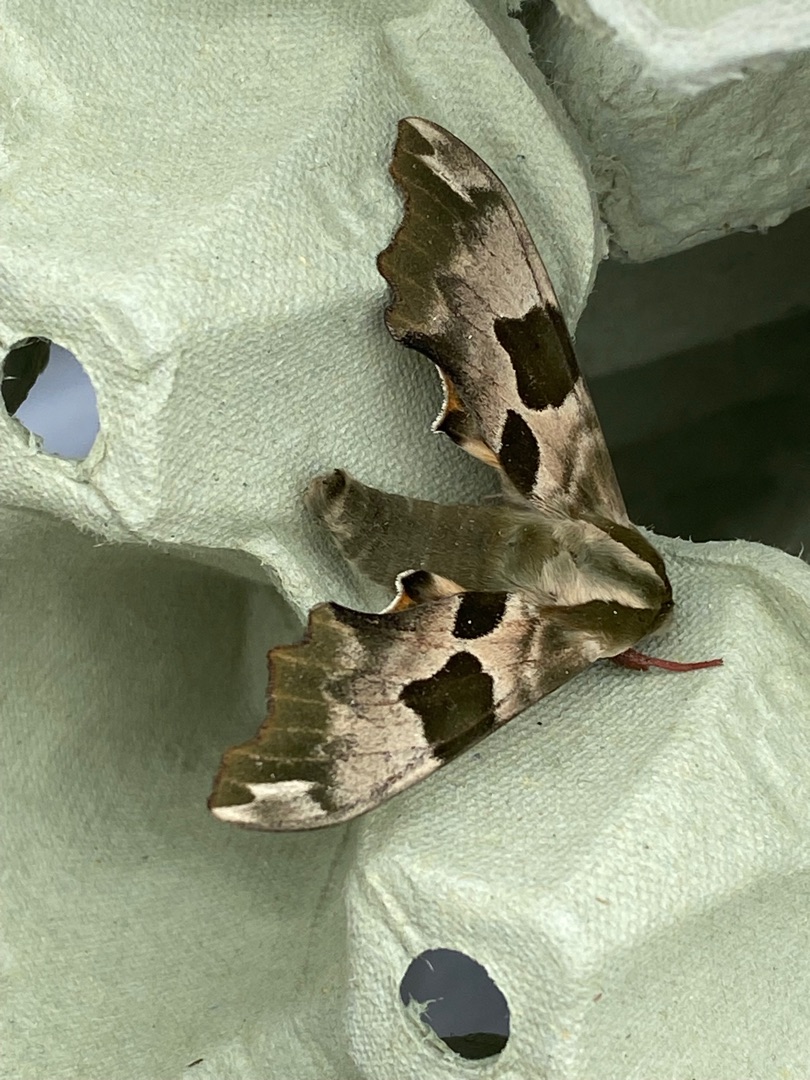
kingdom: Animalia
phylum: Arthropoda
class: Insecta
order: Lepidoptera
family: Sphingidae
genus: Mimas
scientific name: Mimas tiliae
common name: Lindesværmer
